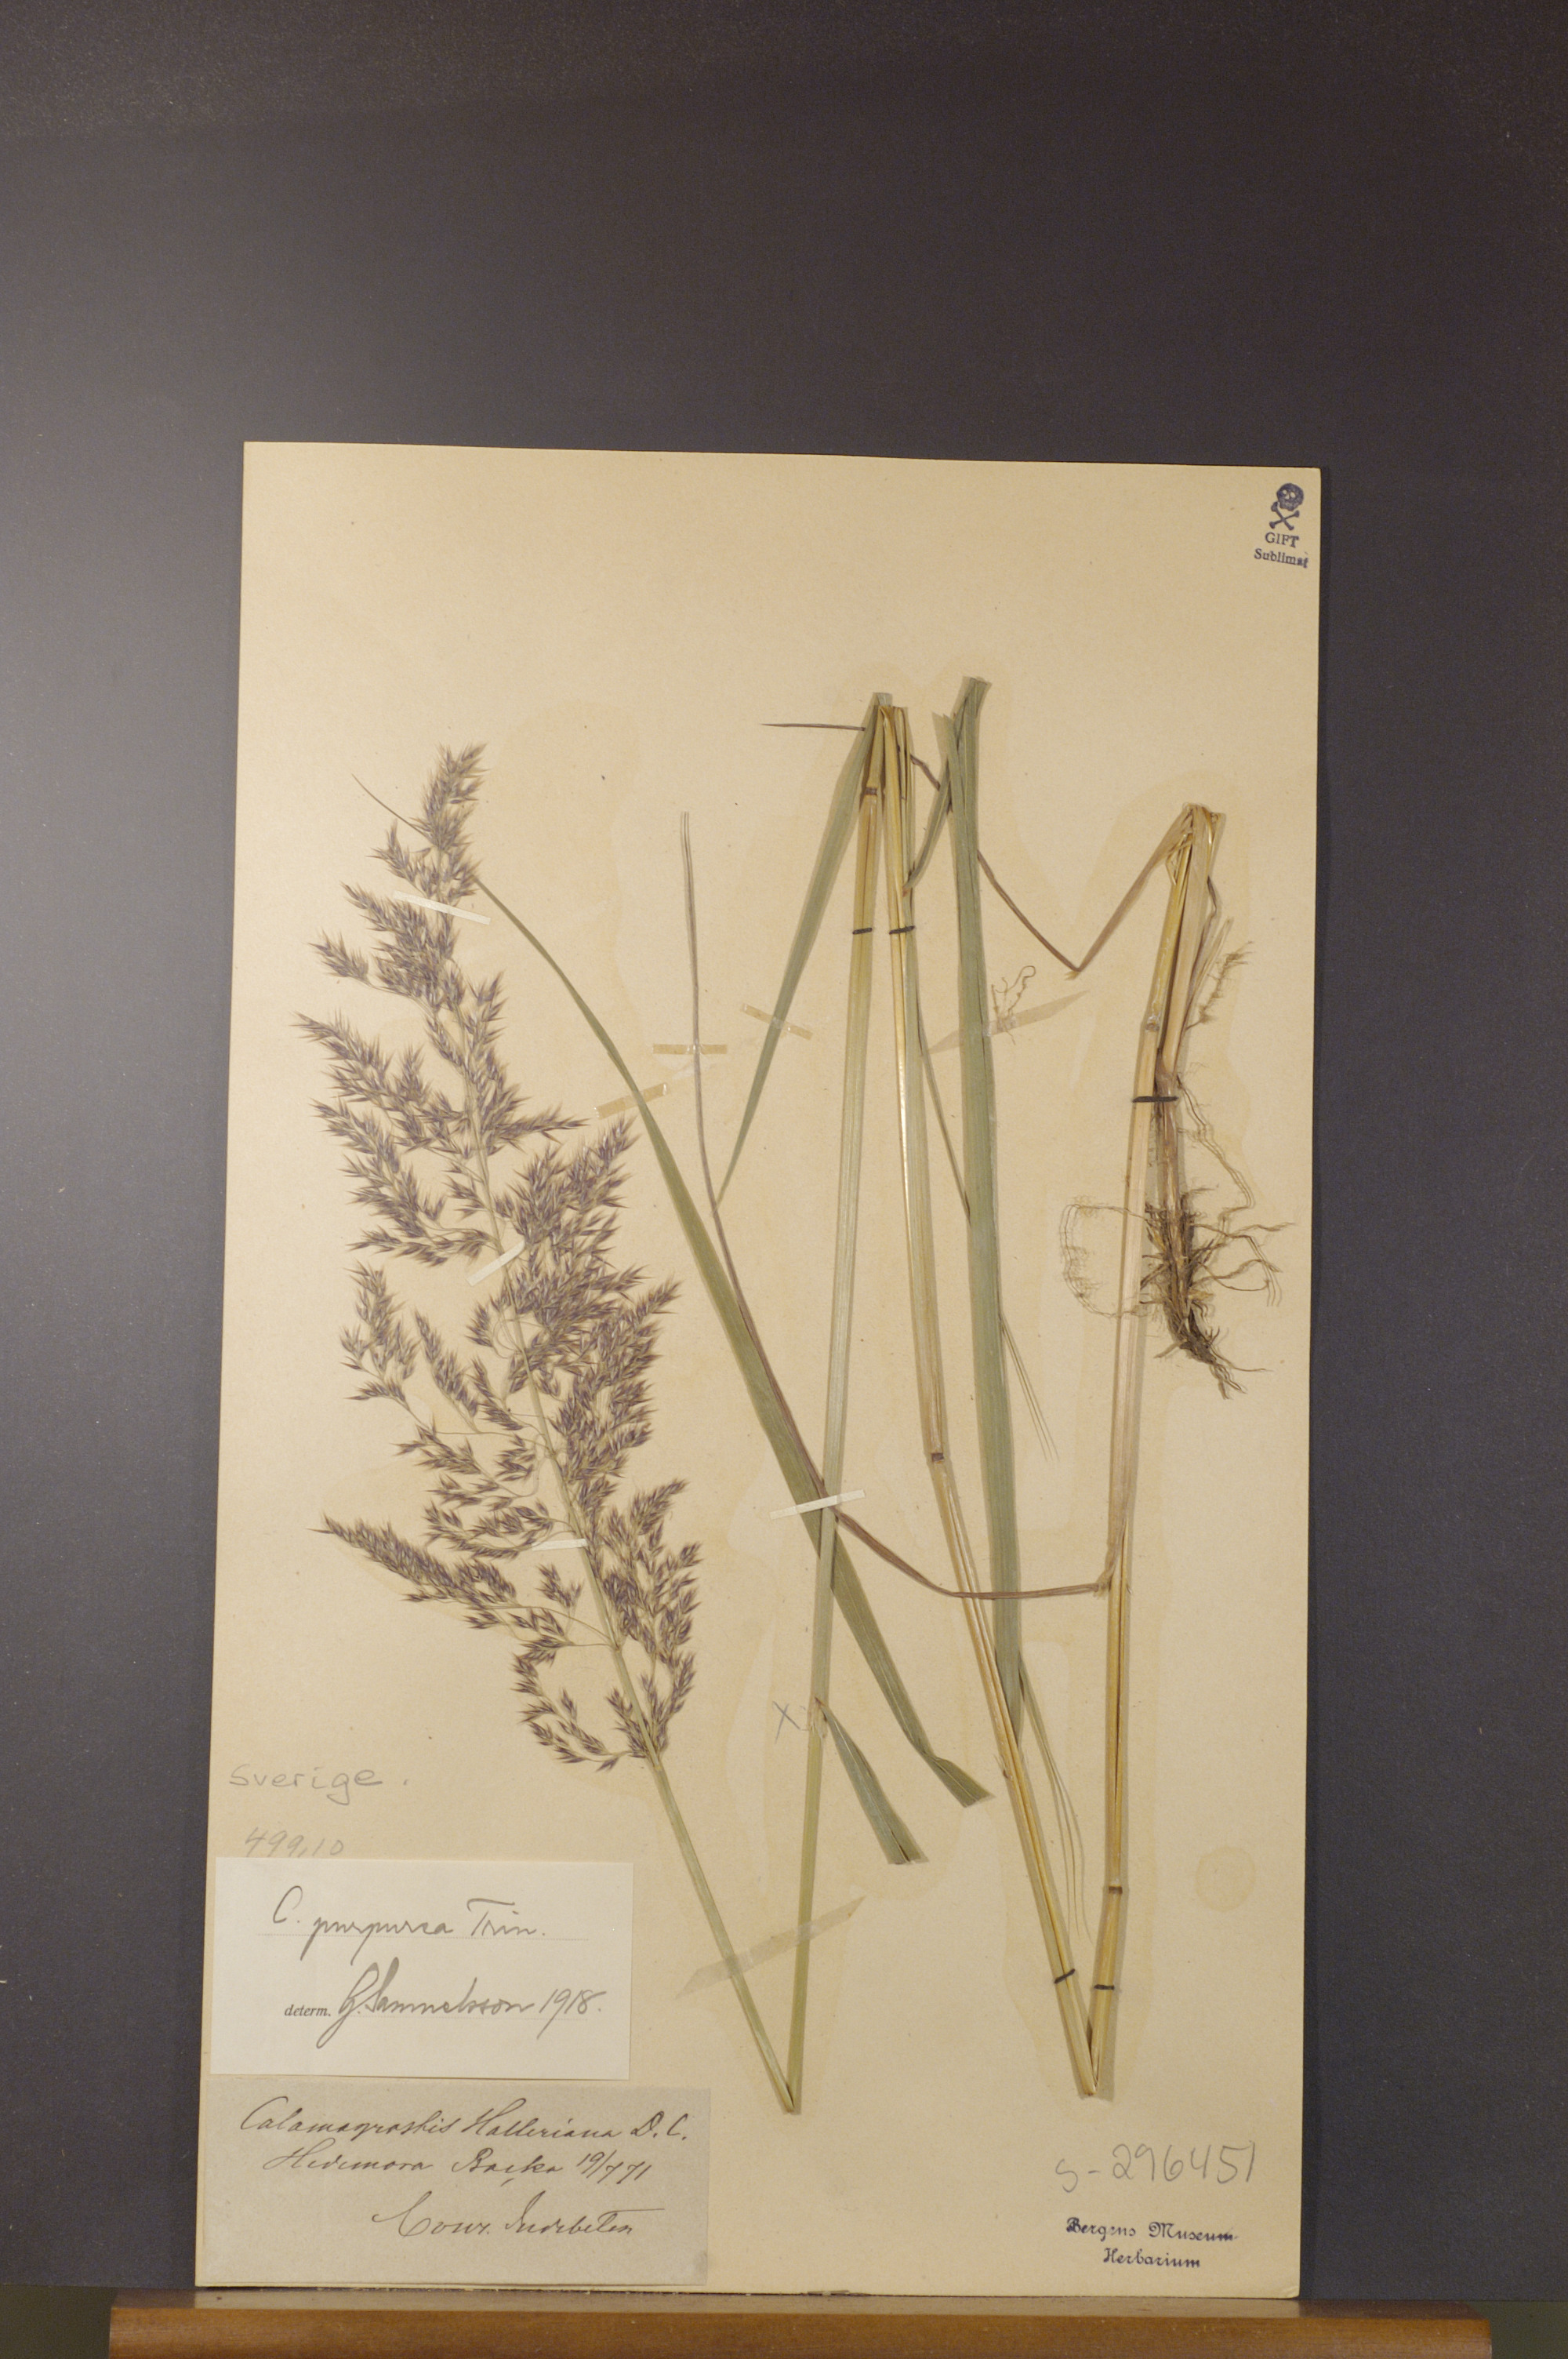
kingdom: Plantae
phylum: Tracheophyta
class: Liliopsida
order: Poales
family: Poaceae
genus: Calamagrostis
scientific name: Calamagrostis purpurea
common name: Scandinavian small-reed
